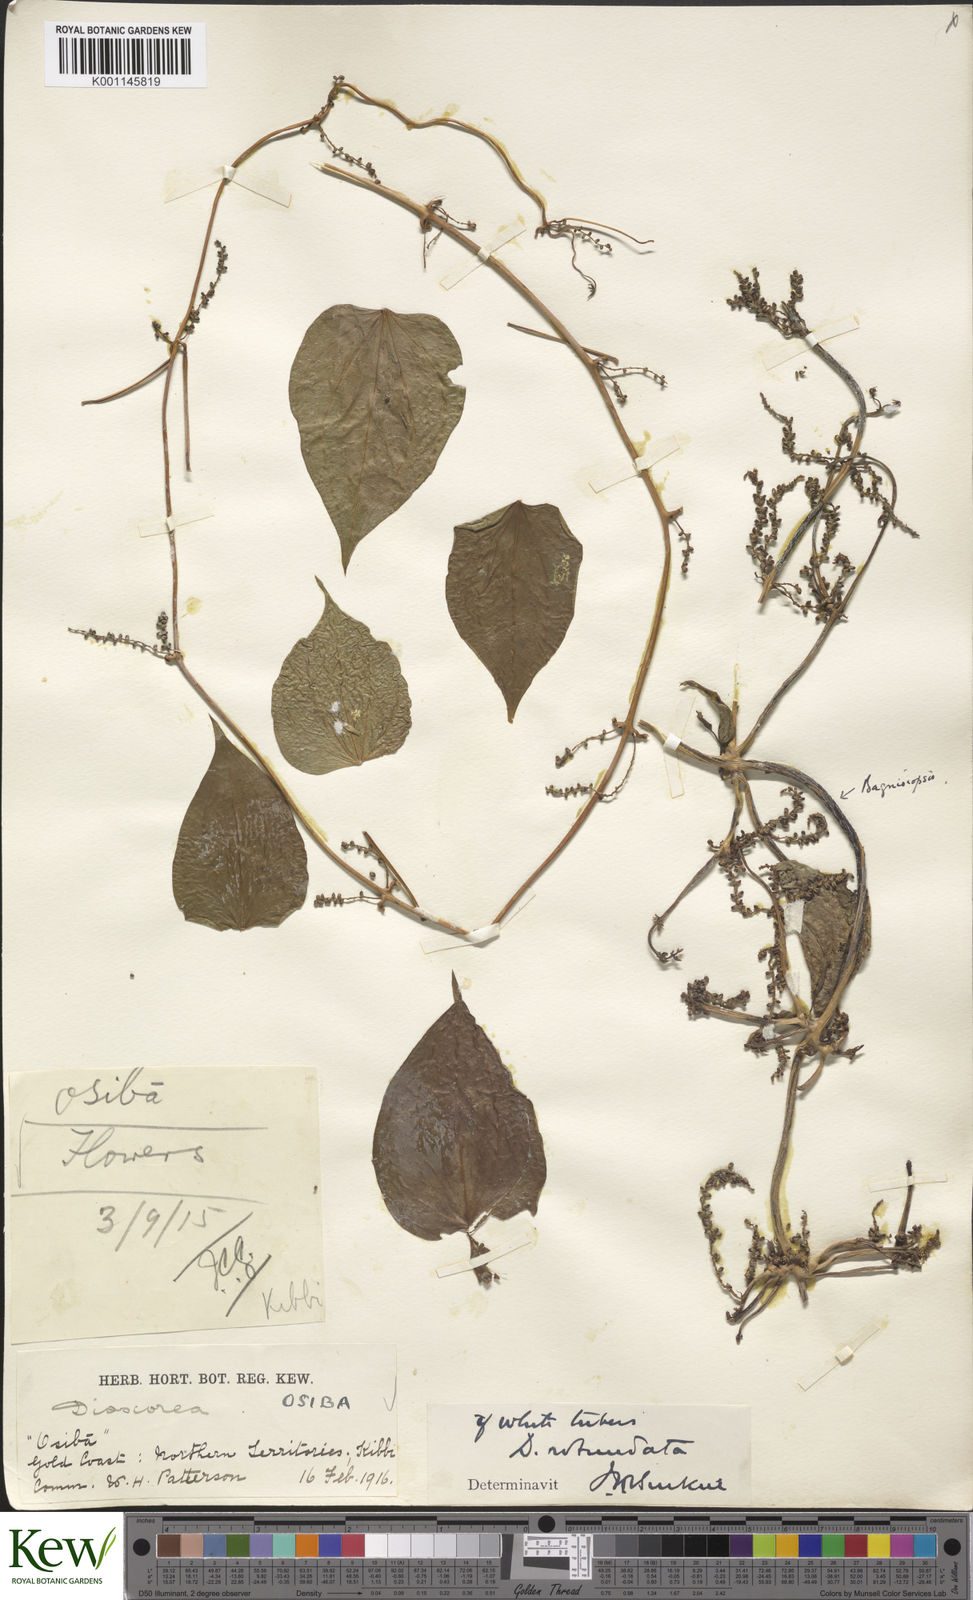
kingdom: Plantae
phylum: Tracheophyta
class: Liliopsida
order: Dioscoreales
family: Dioscoreaceae
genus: Dioscorea
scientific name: Dioscorea cayenensis
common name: Attoto yam
